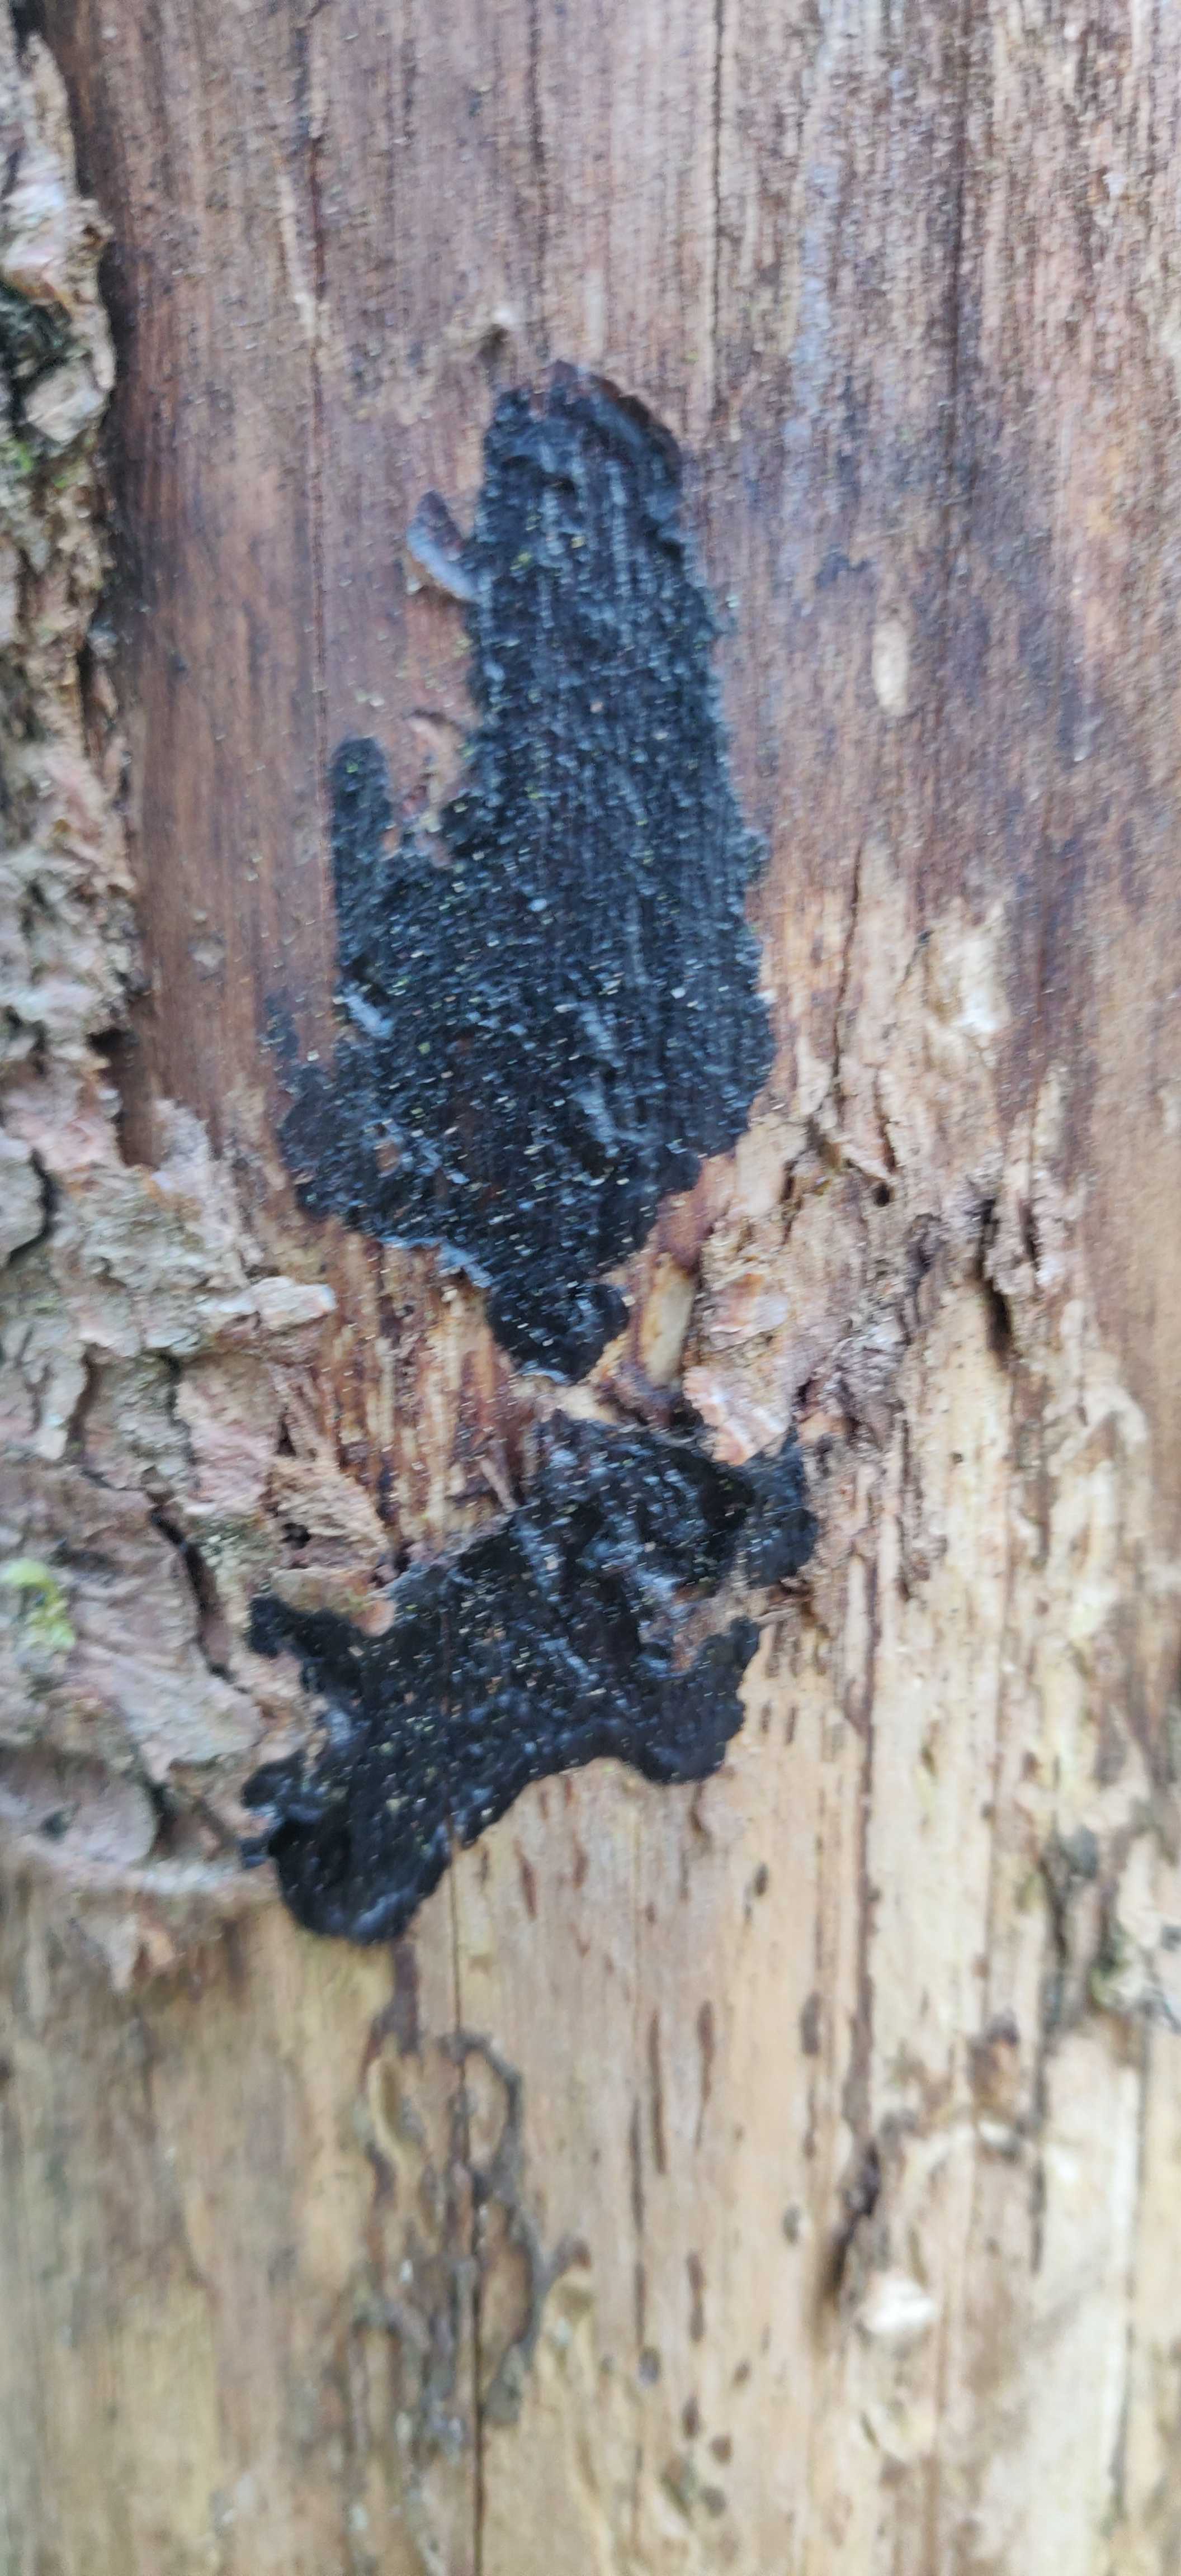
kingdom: Fungi
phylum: Basidiomycota
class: Agaricomycetes
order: Auriculariales
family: Auriculariaceae
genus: Exidia
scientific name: Exidia pithya
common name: gran-bævretop
